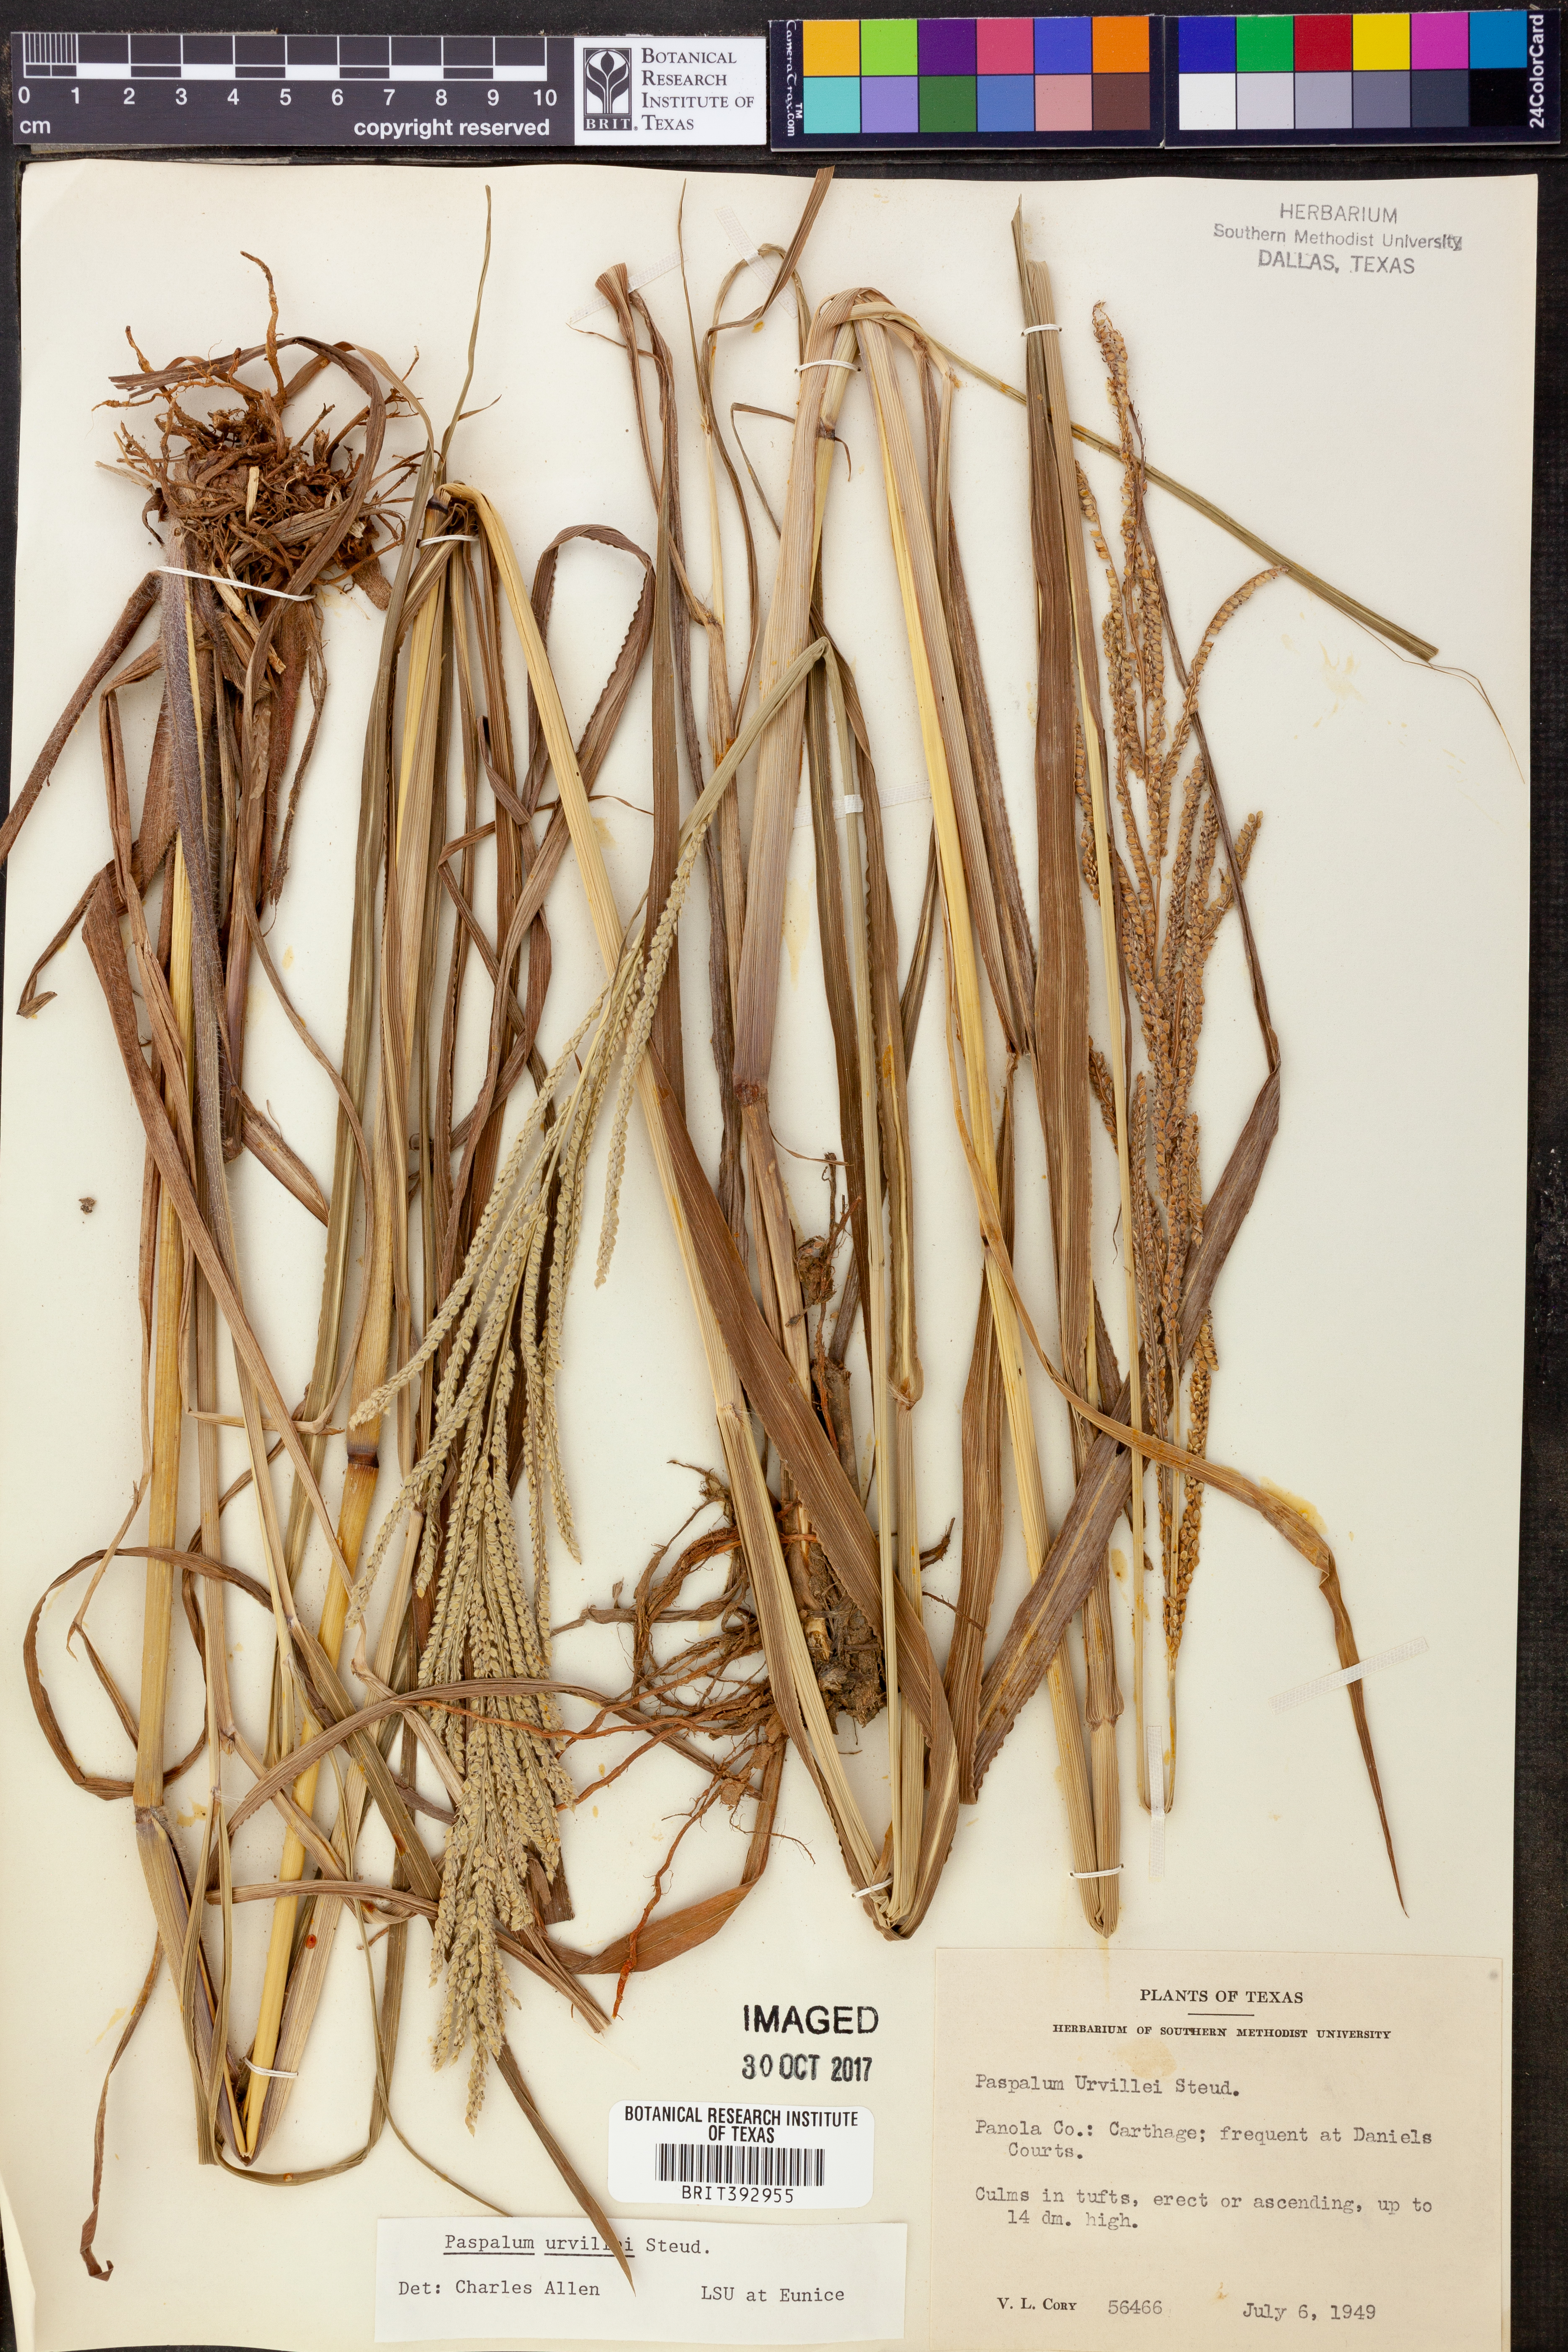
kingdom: Plantae
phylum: Tracheophyta
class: Liliopsida
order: Poales
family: Poaceae
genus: Paspalum
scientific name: Paspalum urvillei
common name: Vasey's grass
